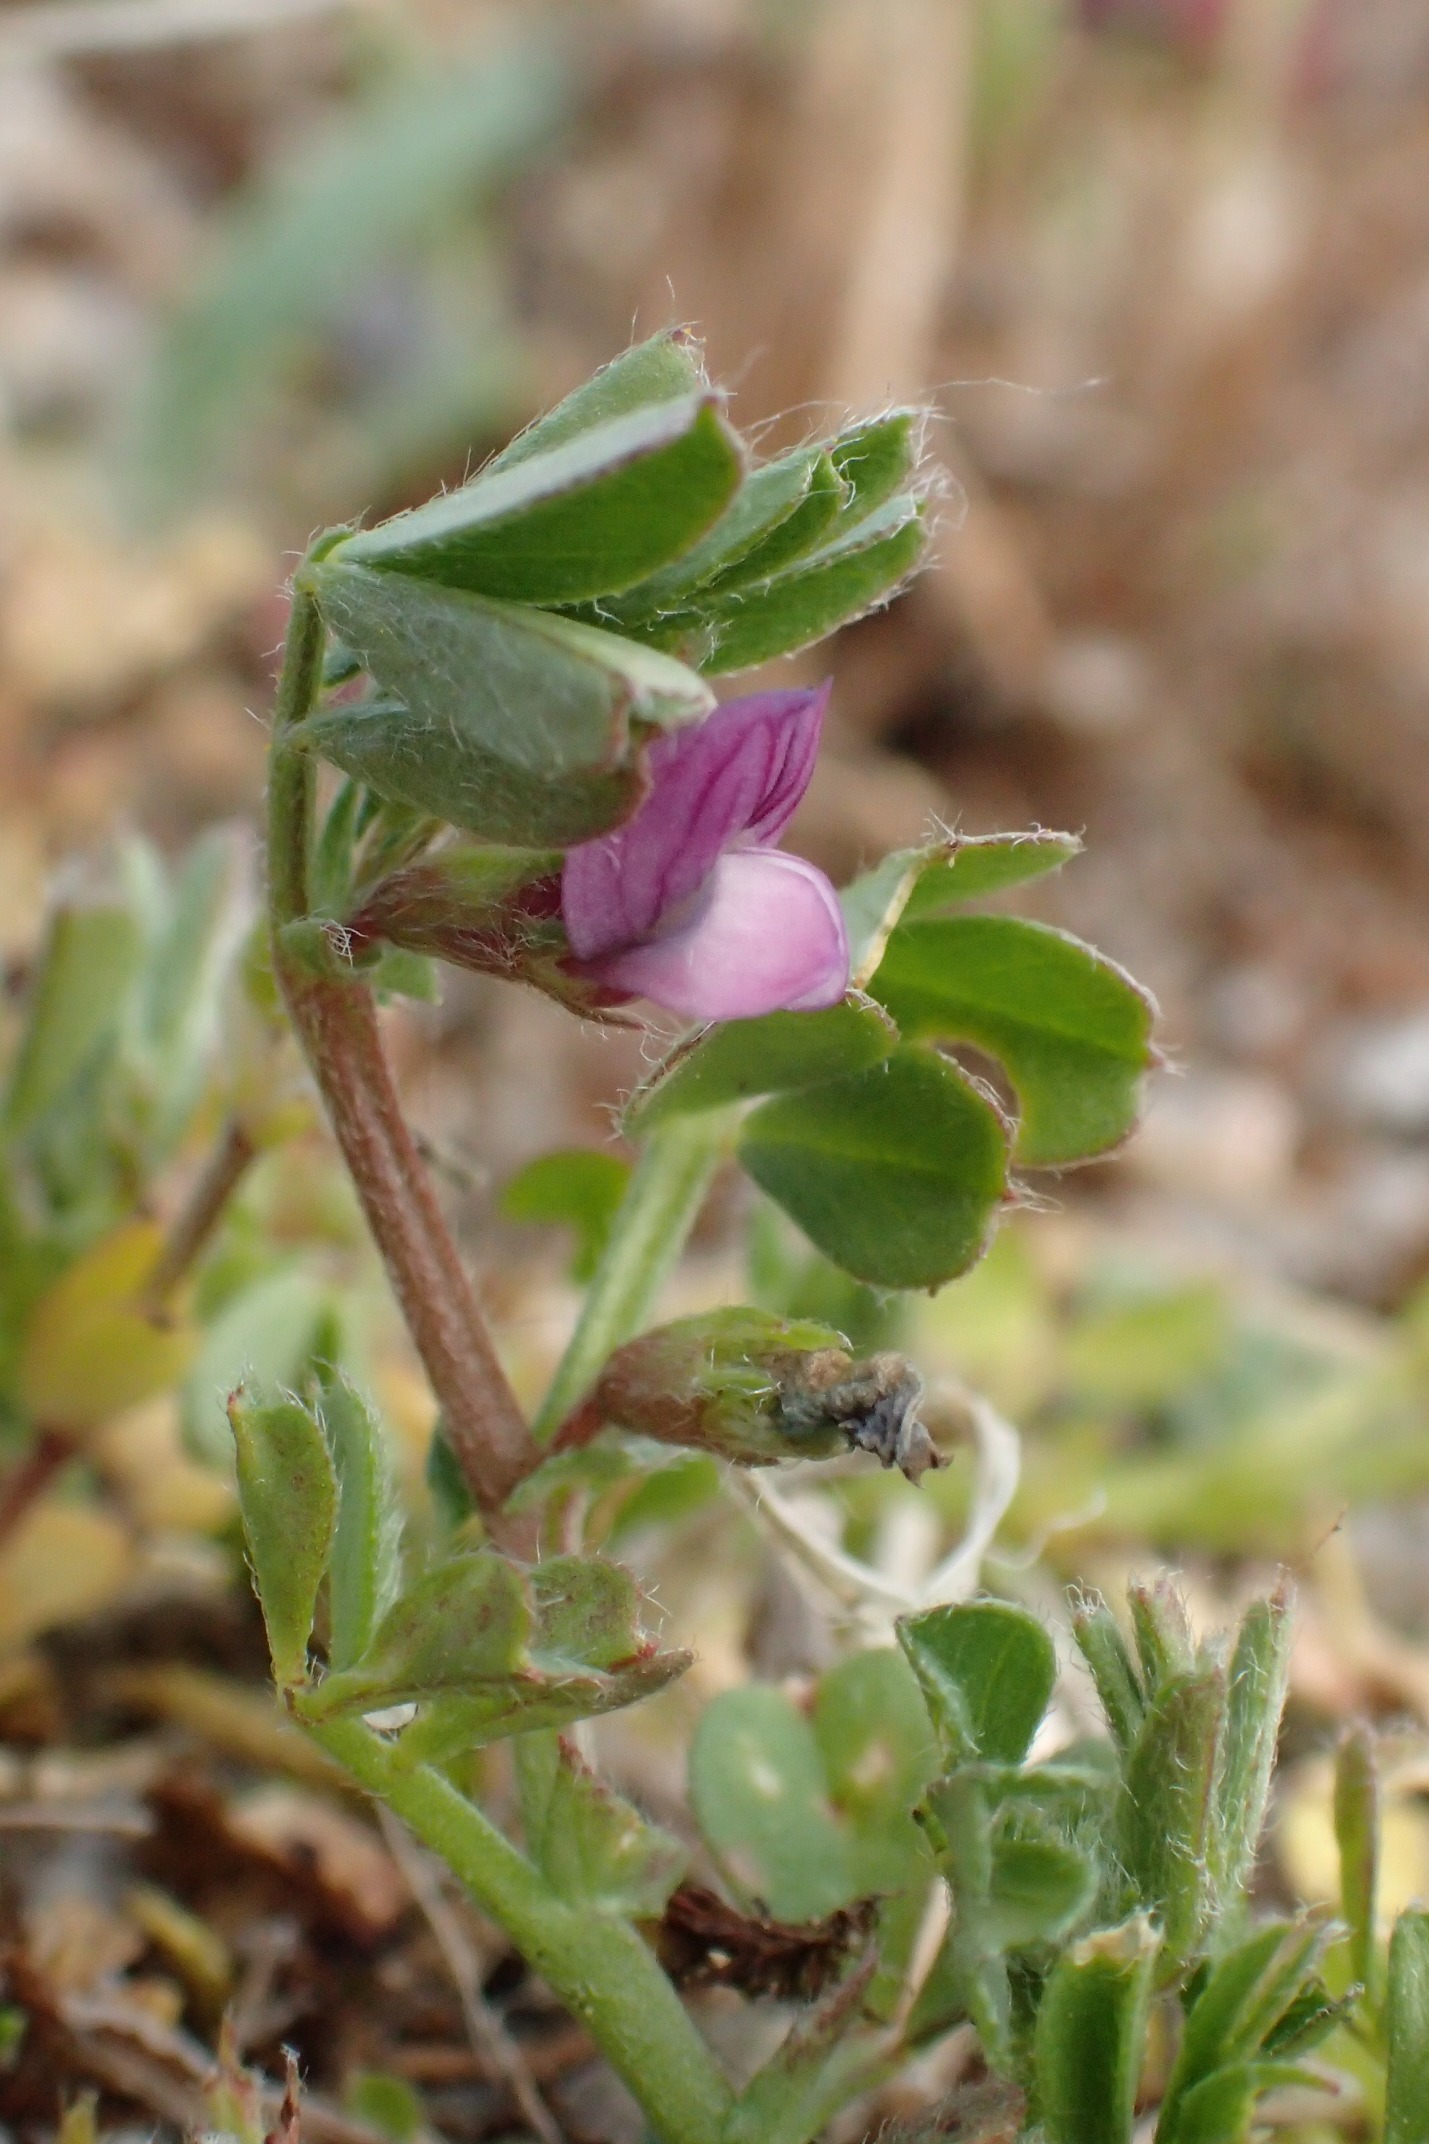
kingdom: Plantae
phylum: Tracheophyta
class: Magnoliopsida
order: Fabales
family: Fabaceae
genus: Vicia
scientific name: Vicia lathyroides
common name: Vår-vikke
